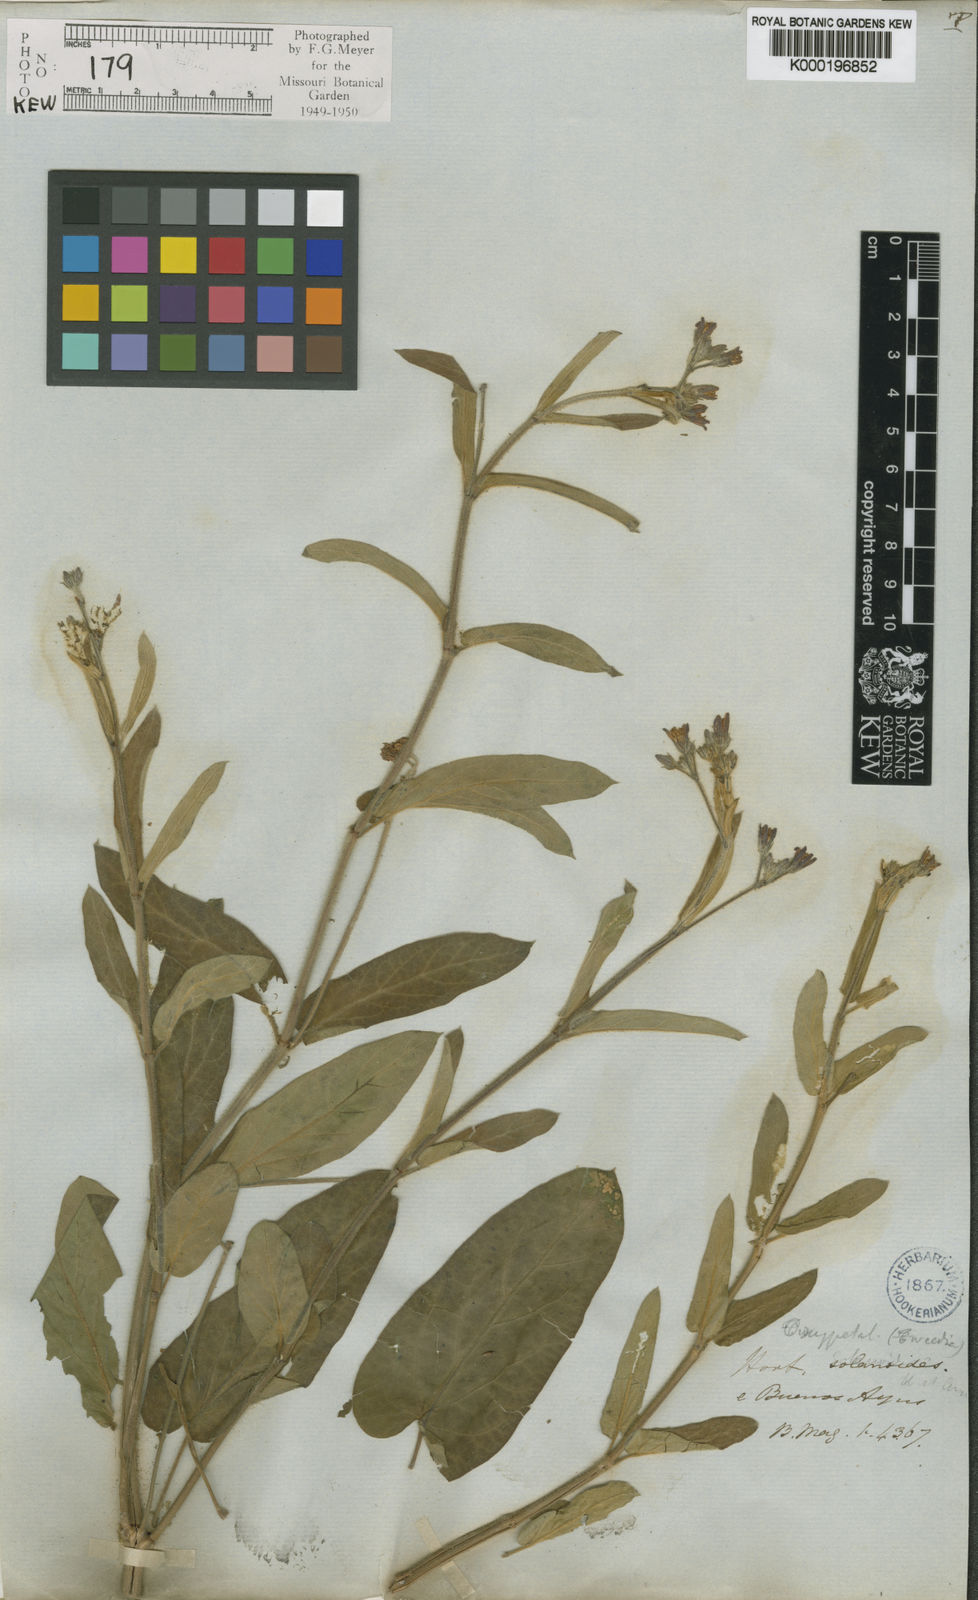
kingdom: Plantae
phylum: Tracheophyta
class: Magnoliopsida
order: Gentianales
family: Apocynaceae
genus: Oxypetalum
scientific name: Oxypetalum solanoides
